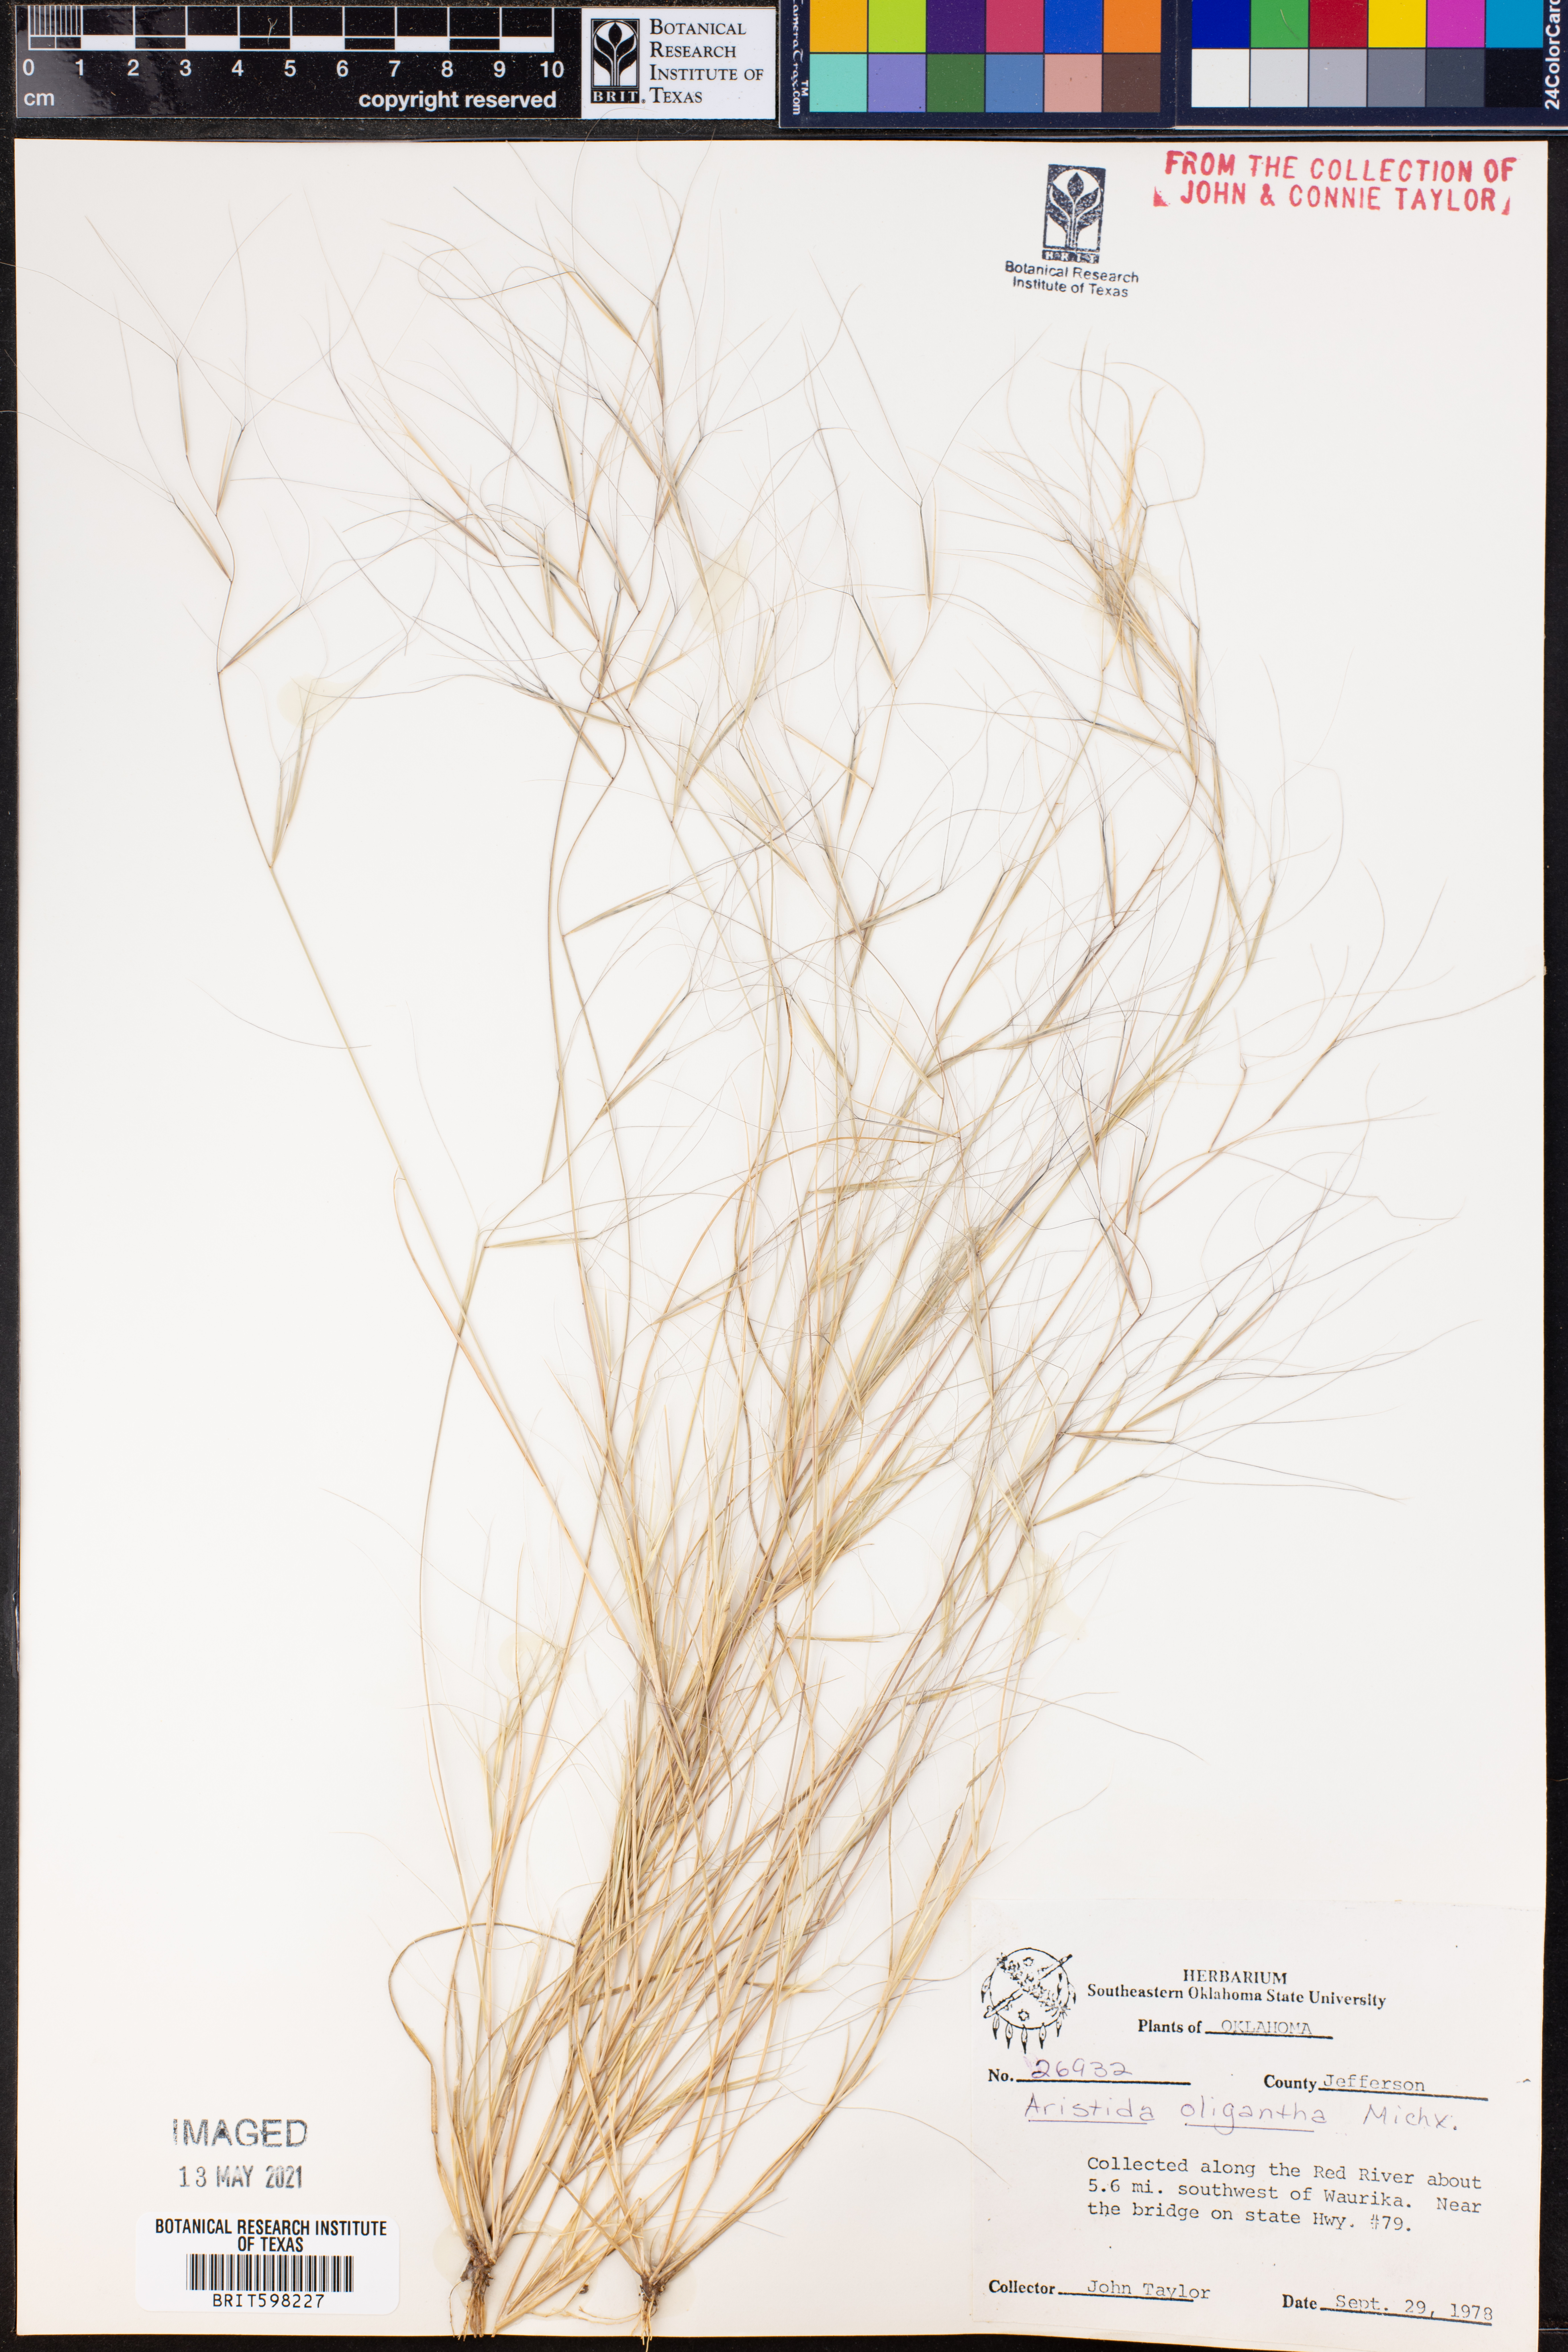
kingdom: Plantae
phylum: Tracheophyta
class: Liliopsida
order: Poales
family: Poaceae
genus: Aristida
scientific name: Aristida oligantha
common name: Few-flowered aristida
